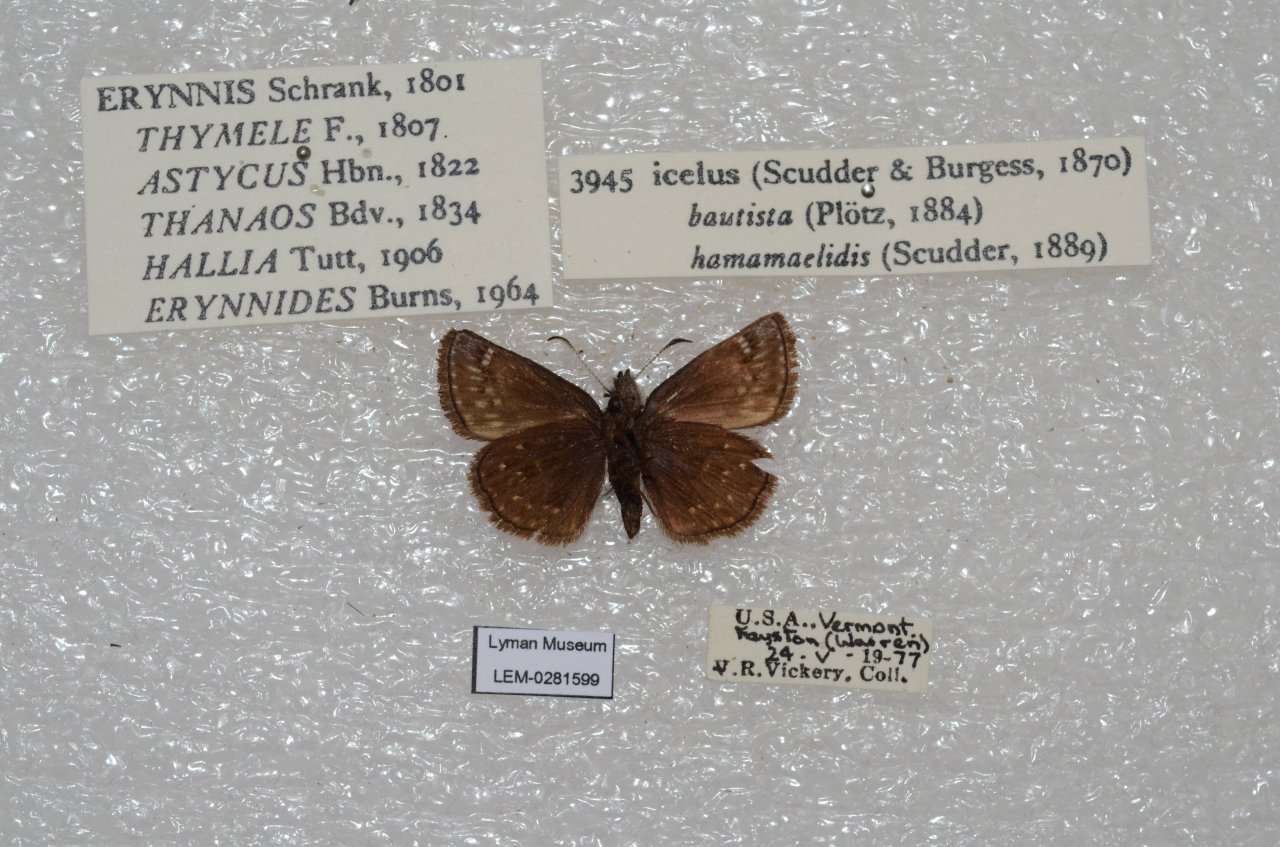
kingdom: Animalia
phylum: Arthropoda
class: Insecta
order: Lepidoptera
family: Hesperiidae
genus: Erynnis
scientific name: Erynnis icelus
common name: Dreamy Duskywing
